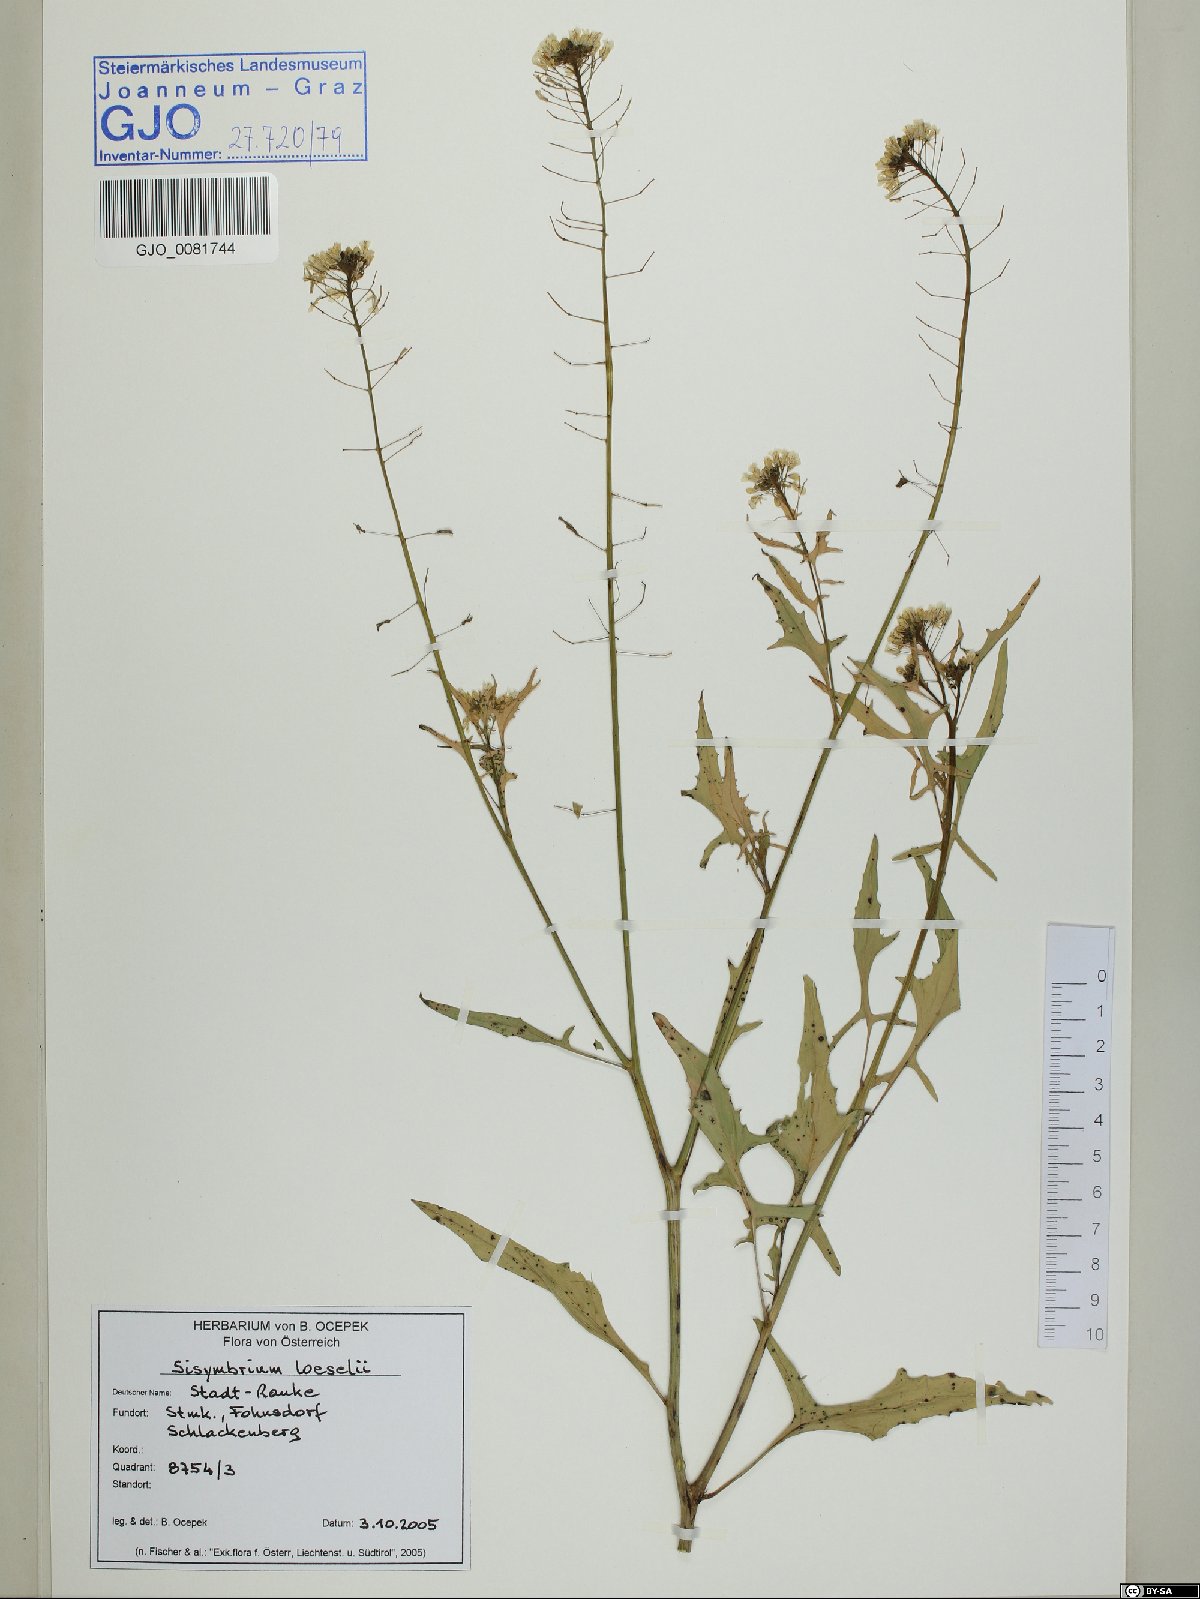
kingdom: Plantae
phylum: Tracheophyta
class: Magnoliopsida
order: Brassicales
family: Brassicaceae
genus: Sisymbrium
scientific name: Sisymbrium loeselii
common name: False london-rocket
